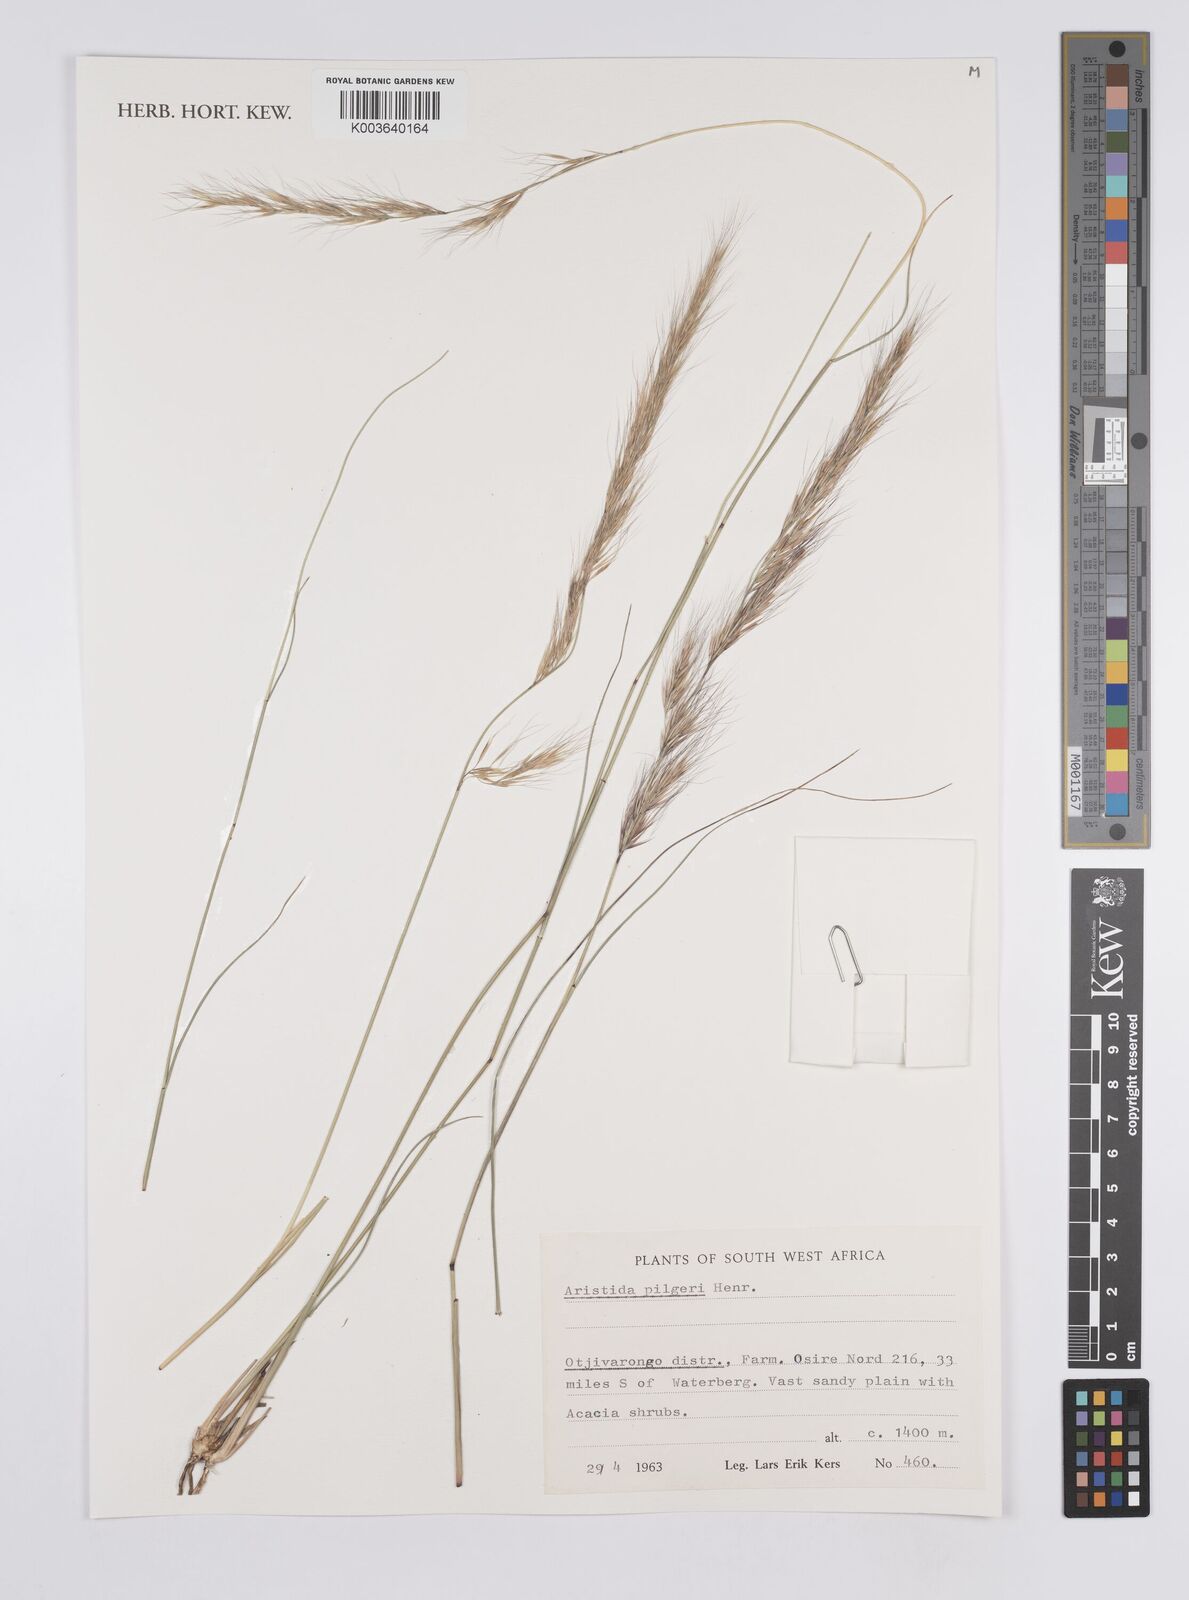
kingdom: Plantae
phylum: Tracheophyta
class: Liliopsida
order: Poales
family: Poaceae
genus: Aristida
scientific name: Aristida pilgeri
